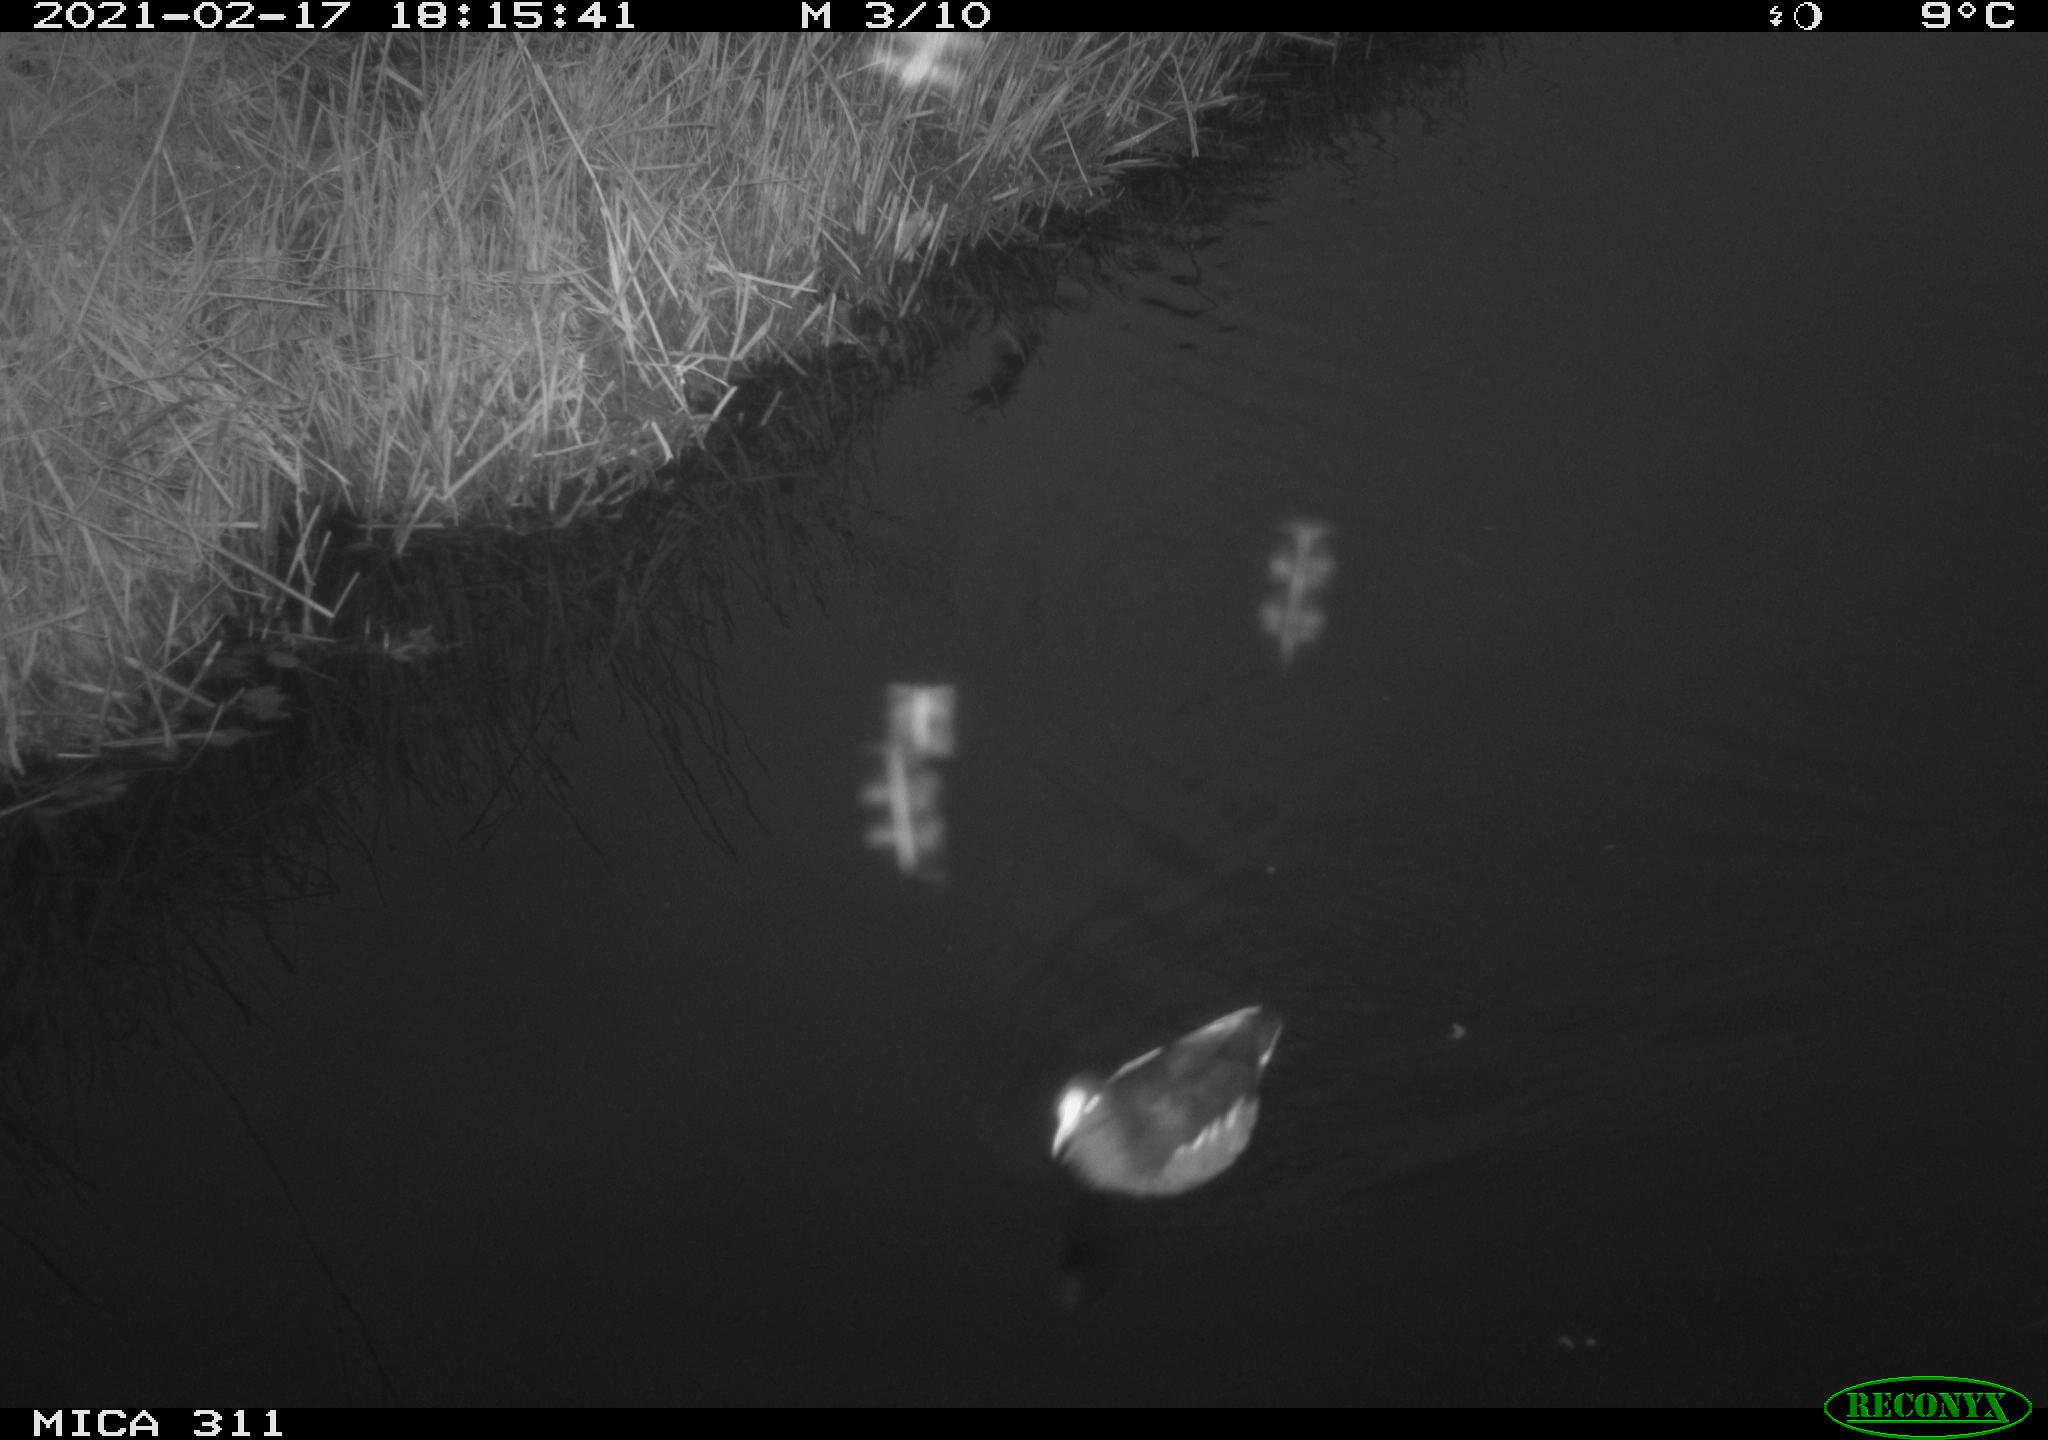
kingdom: Animalia
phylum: Chordata
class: Aves
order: Gruiformes
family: Rallidae
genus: Gallinula
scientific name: Gallinula chloropus
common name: Common moorhen
